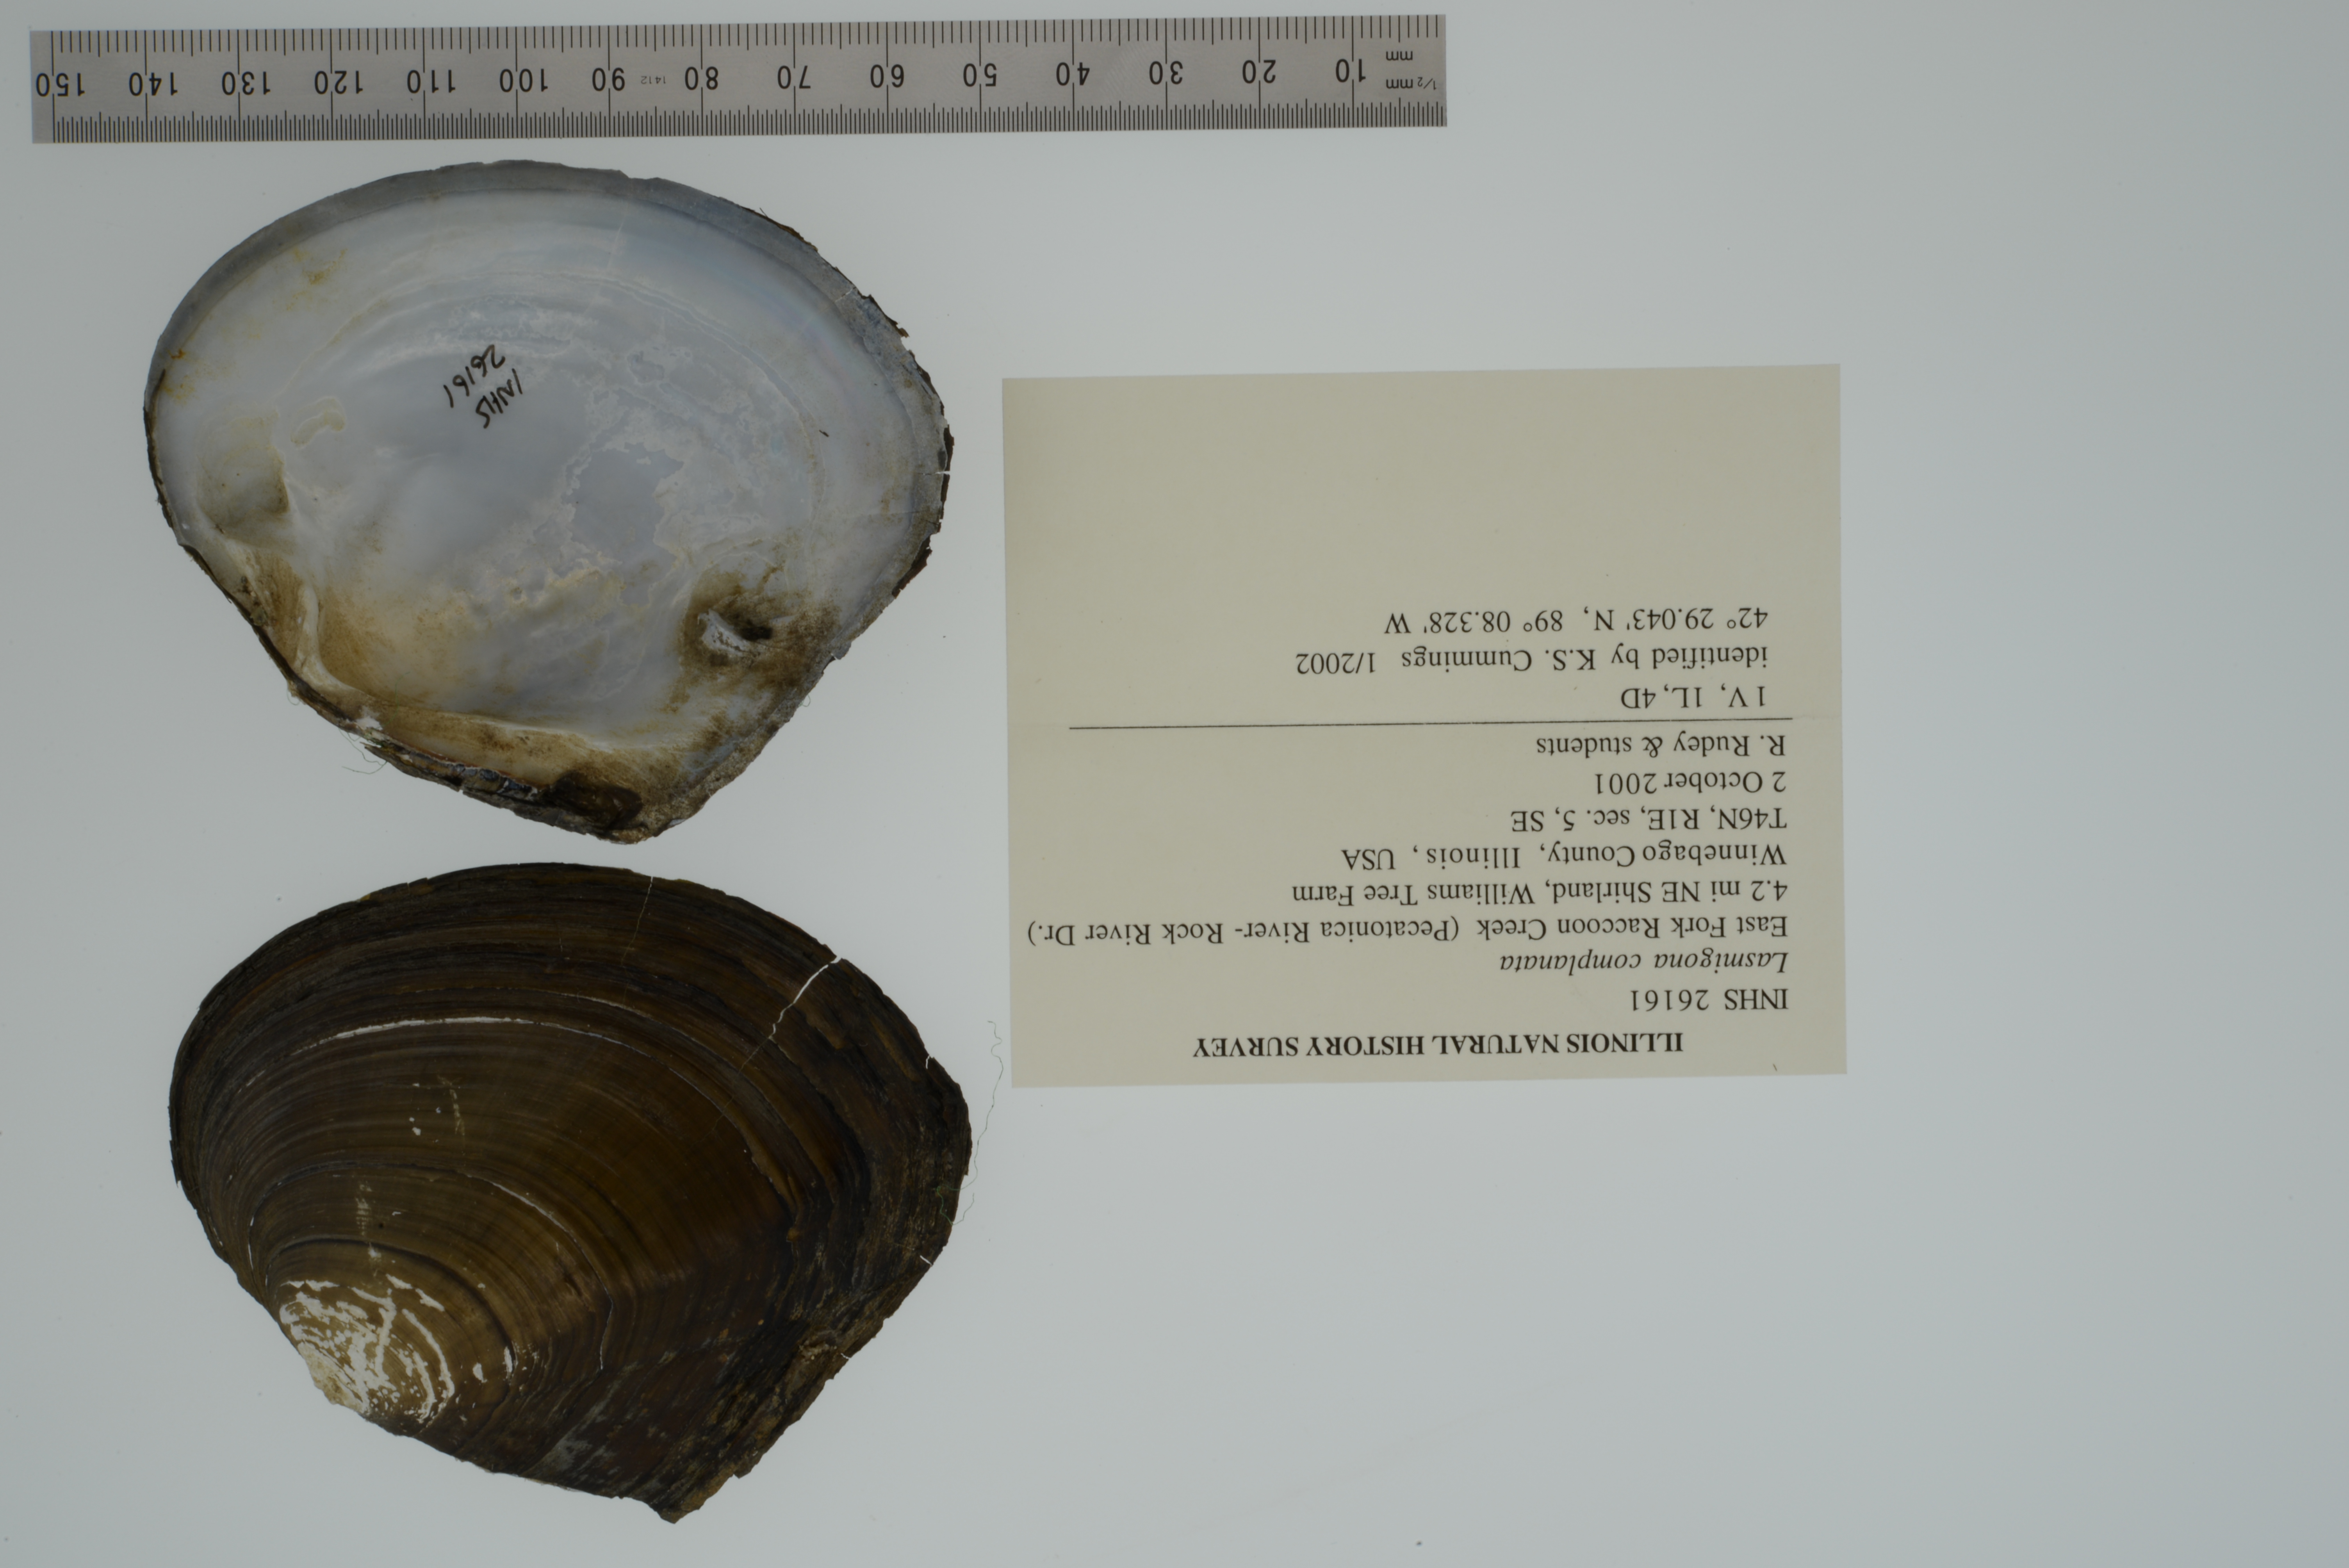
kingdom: Animalia
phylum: Mollusca
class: Bivalvia
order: Unionida
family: Unionidae
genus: Lasmigona
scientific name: Lasmigona complanata
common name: White heelsplitter
